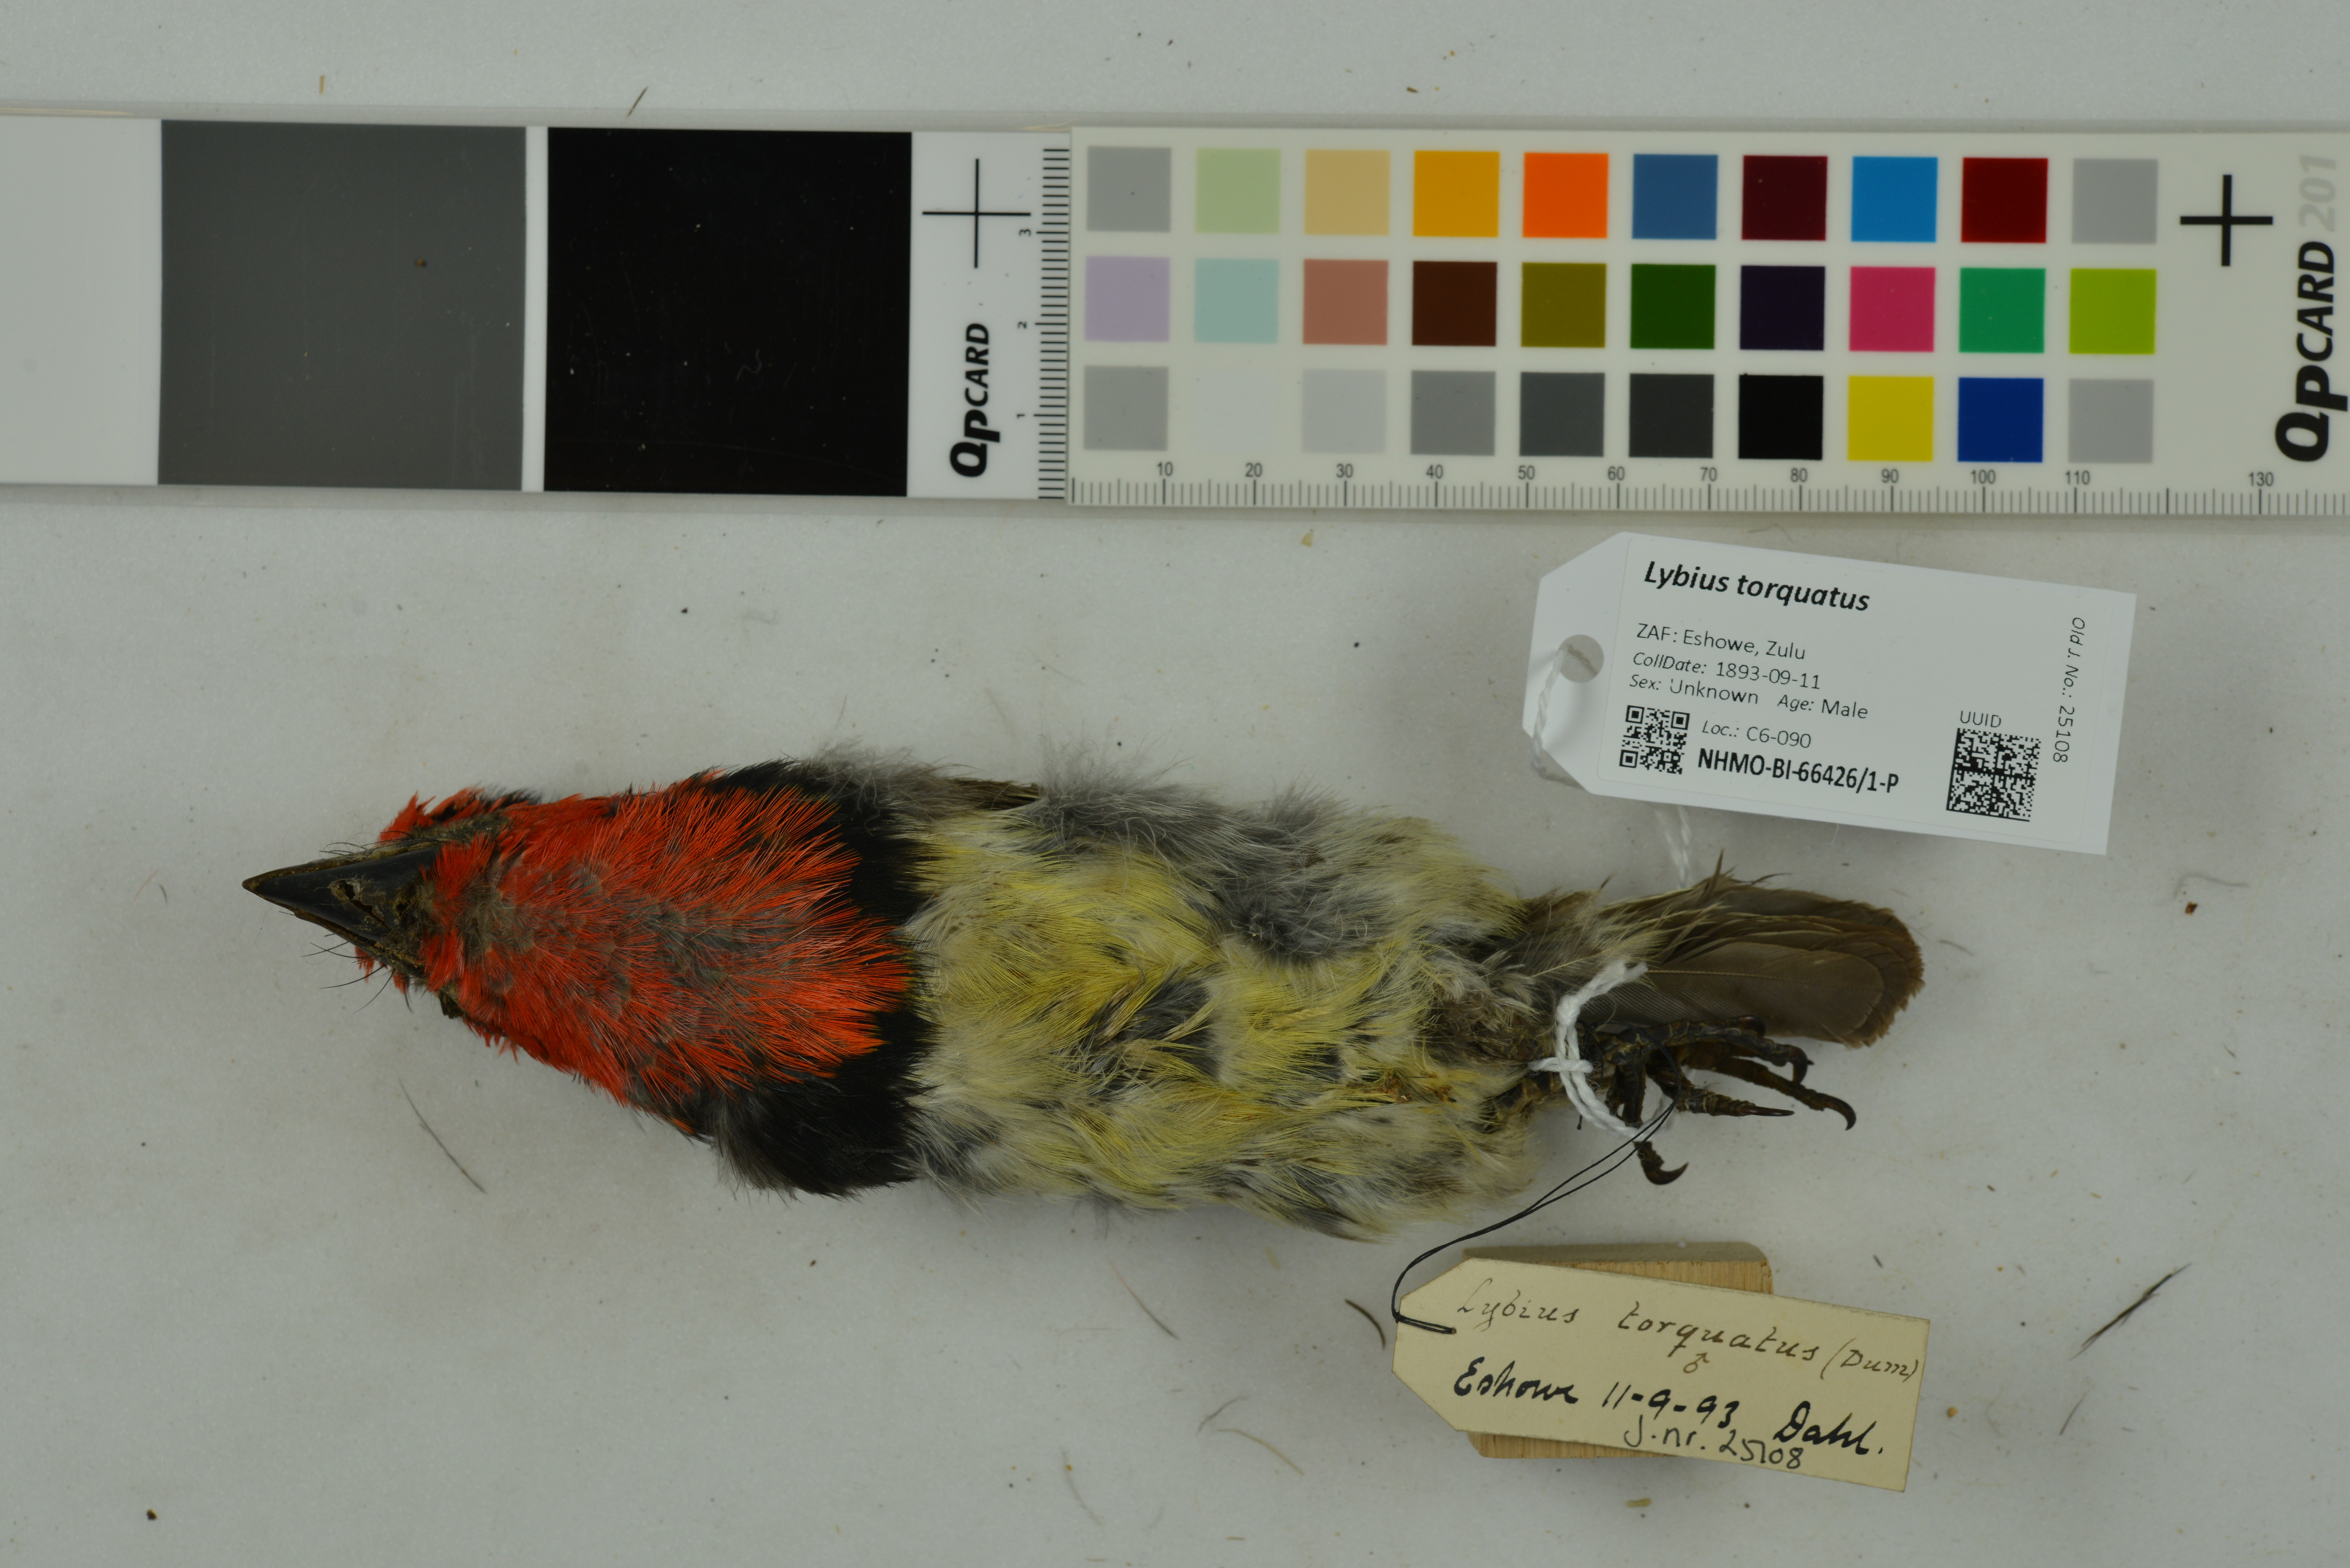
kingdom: Animalia
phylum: Chordata
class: Aves
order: Piciformes
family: Lybiidae
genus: Lybius
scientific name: Lybius torquatus
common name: Black-collared barbet
